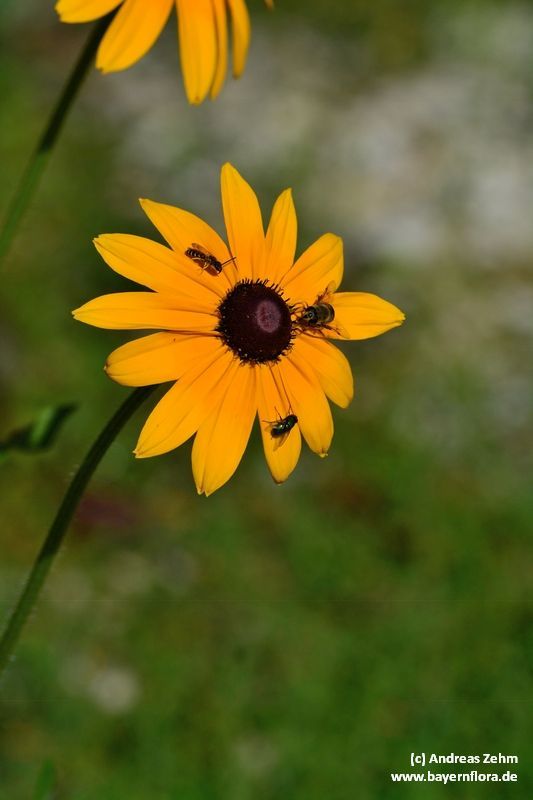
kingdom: Plantae
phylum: Tracheophyta
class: Magnoliopsida
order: Asterales
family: Asteraceae
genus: Rudbeckia
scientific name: Rudbeckia fulgida
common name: Perennial coneflower
